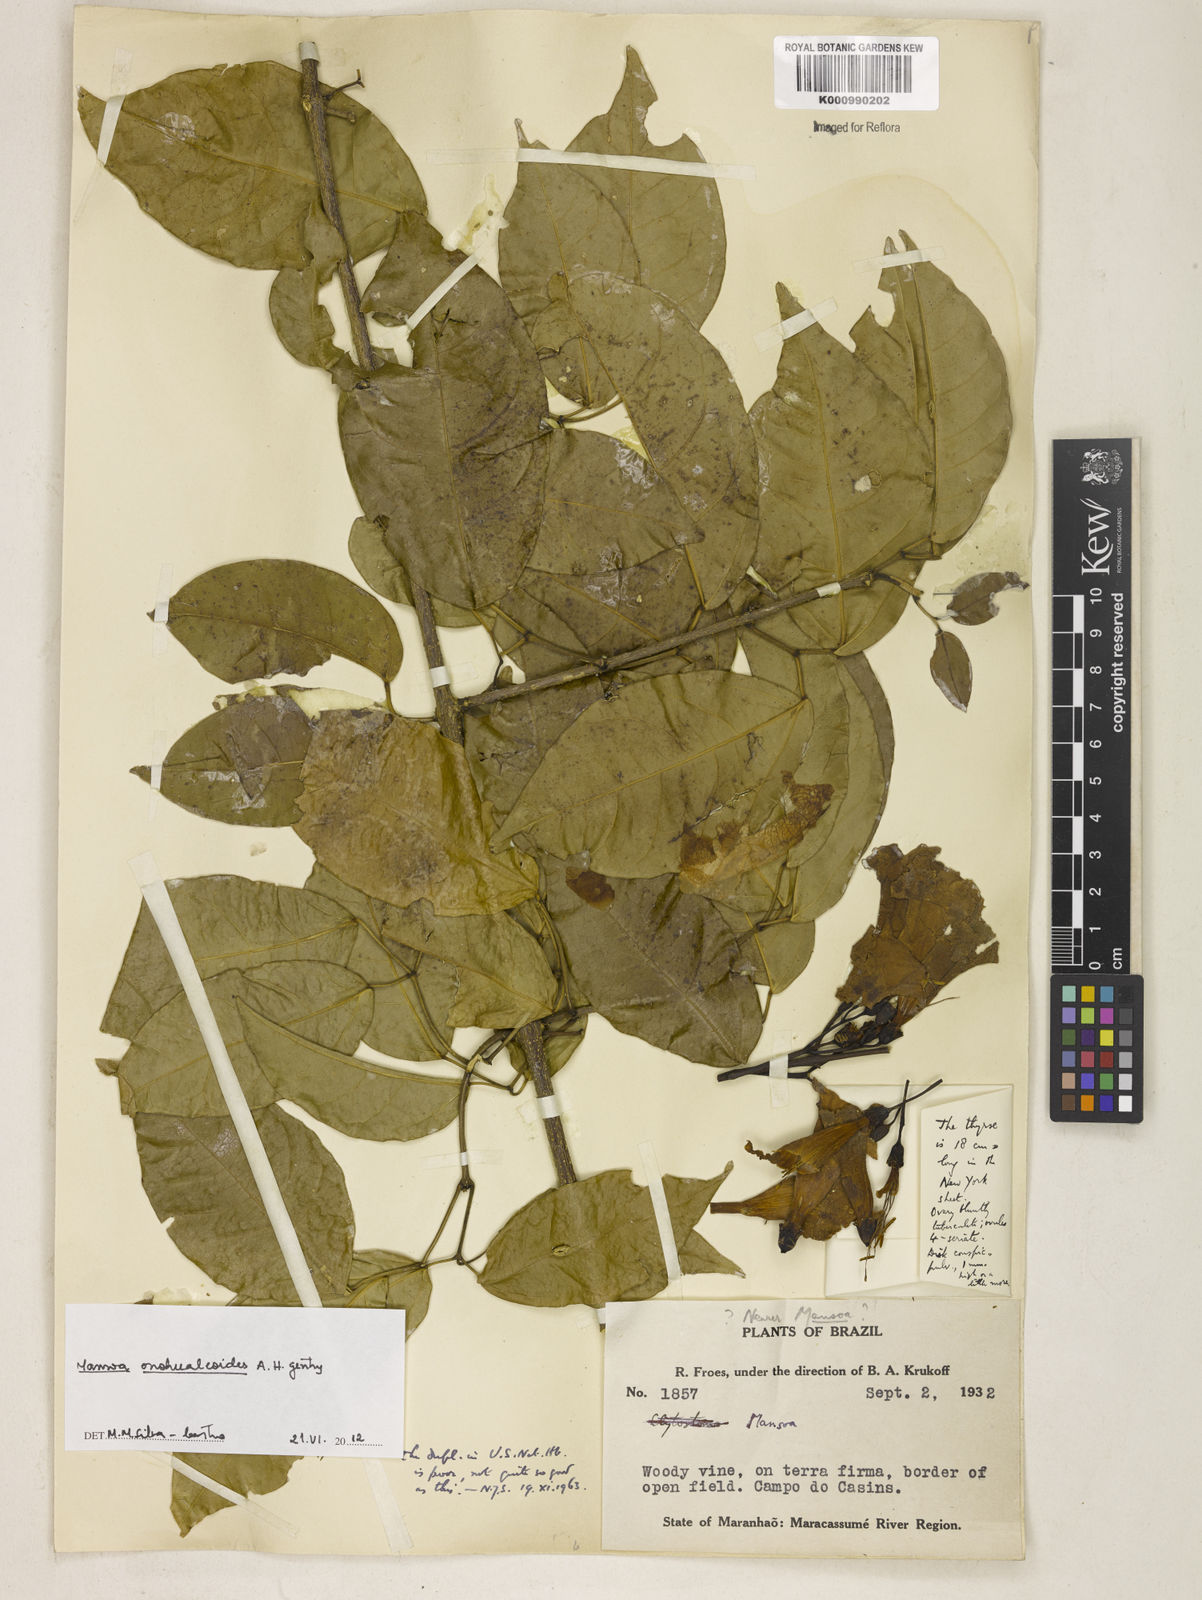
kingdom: Plantae
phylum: Tracheophyta
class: Magnoliopsida
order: Lamiales
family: Bignoniaceae
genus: Mansoa
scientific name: Mansoa onohualcoides
